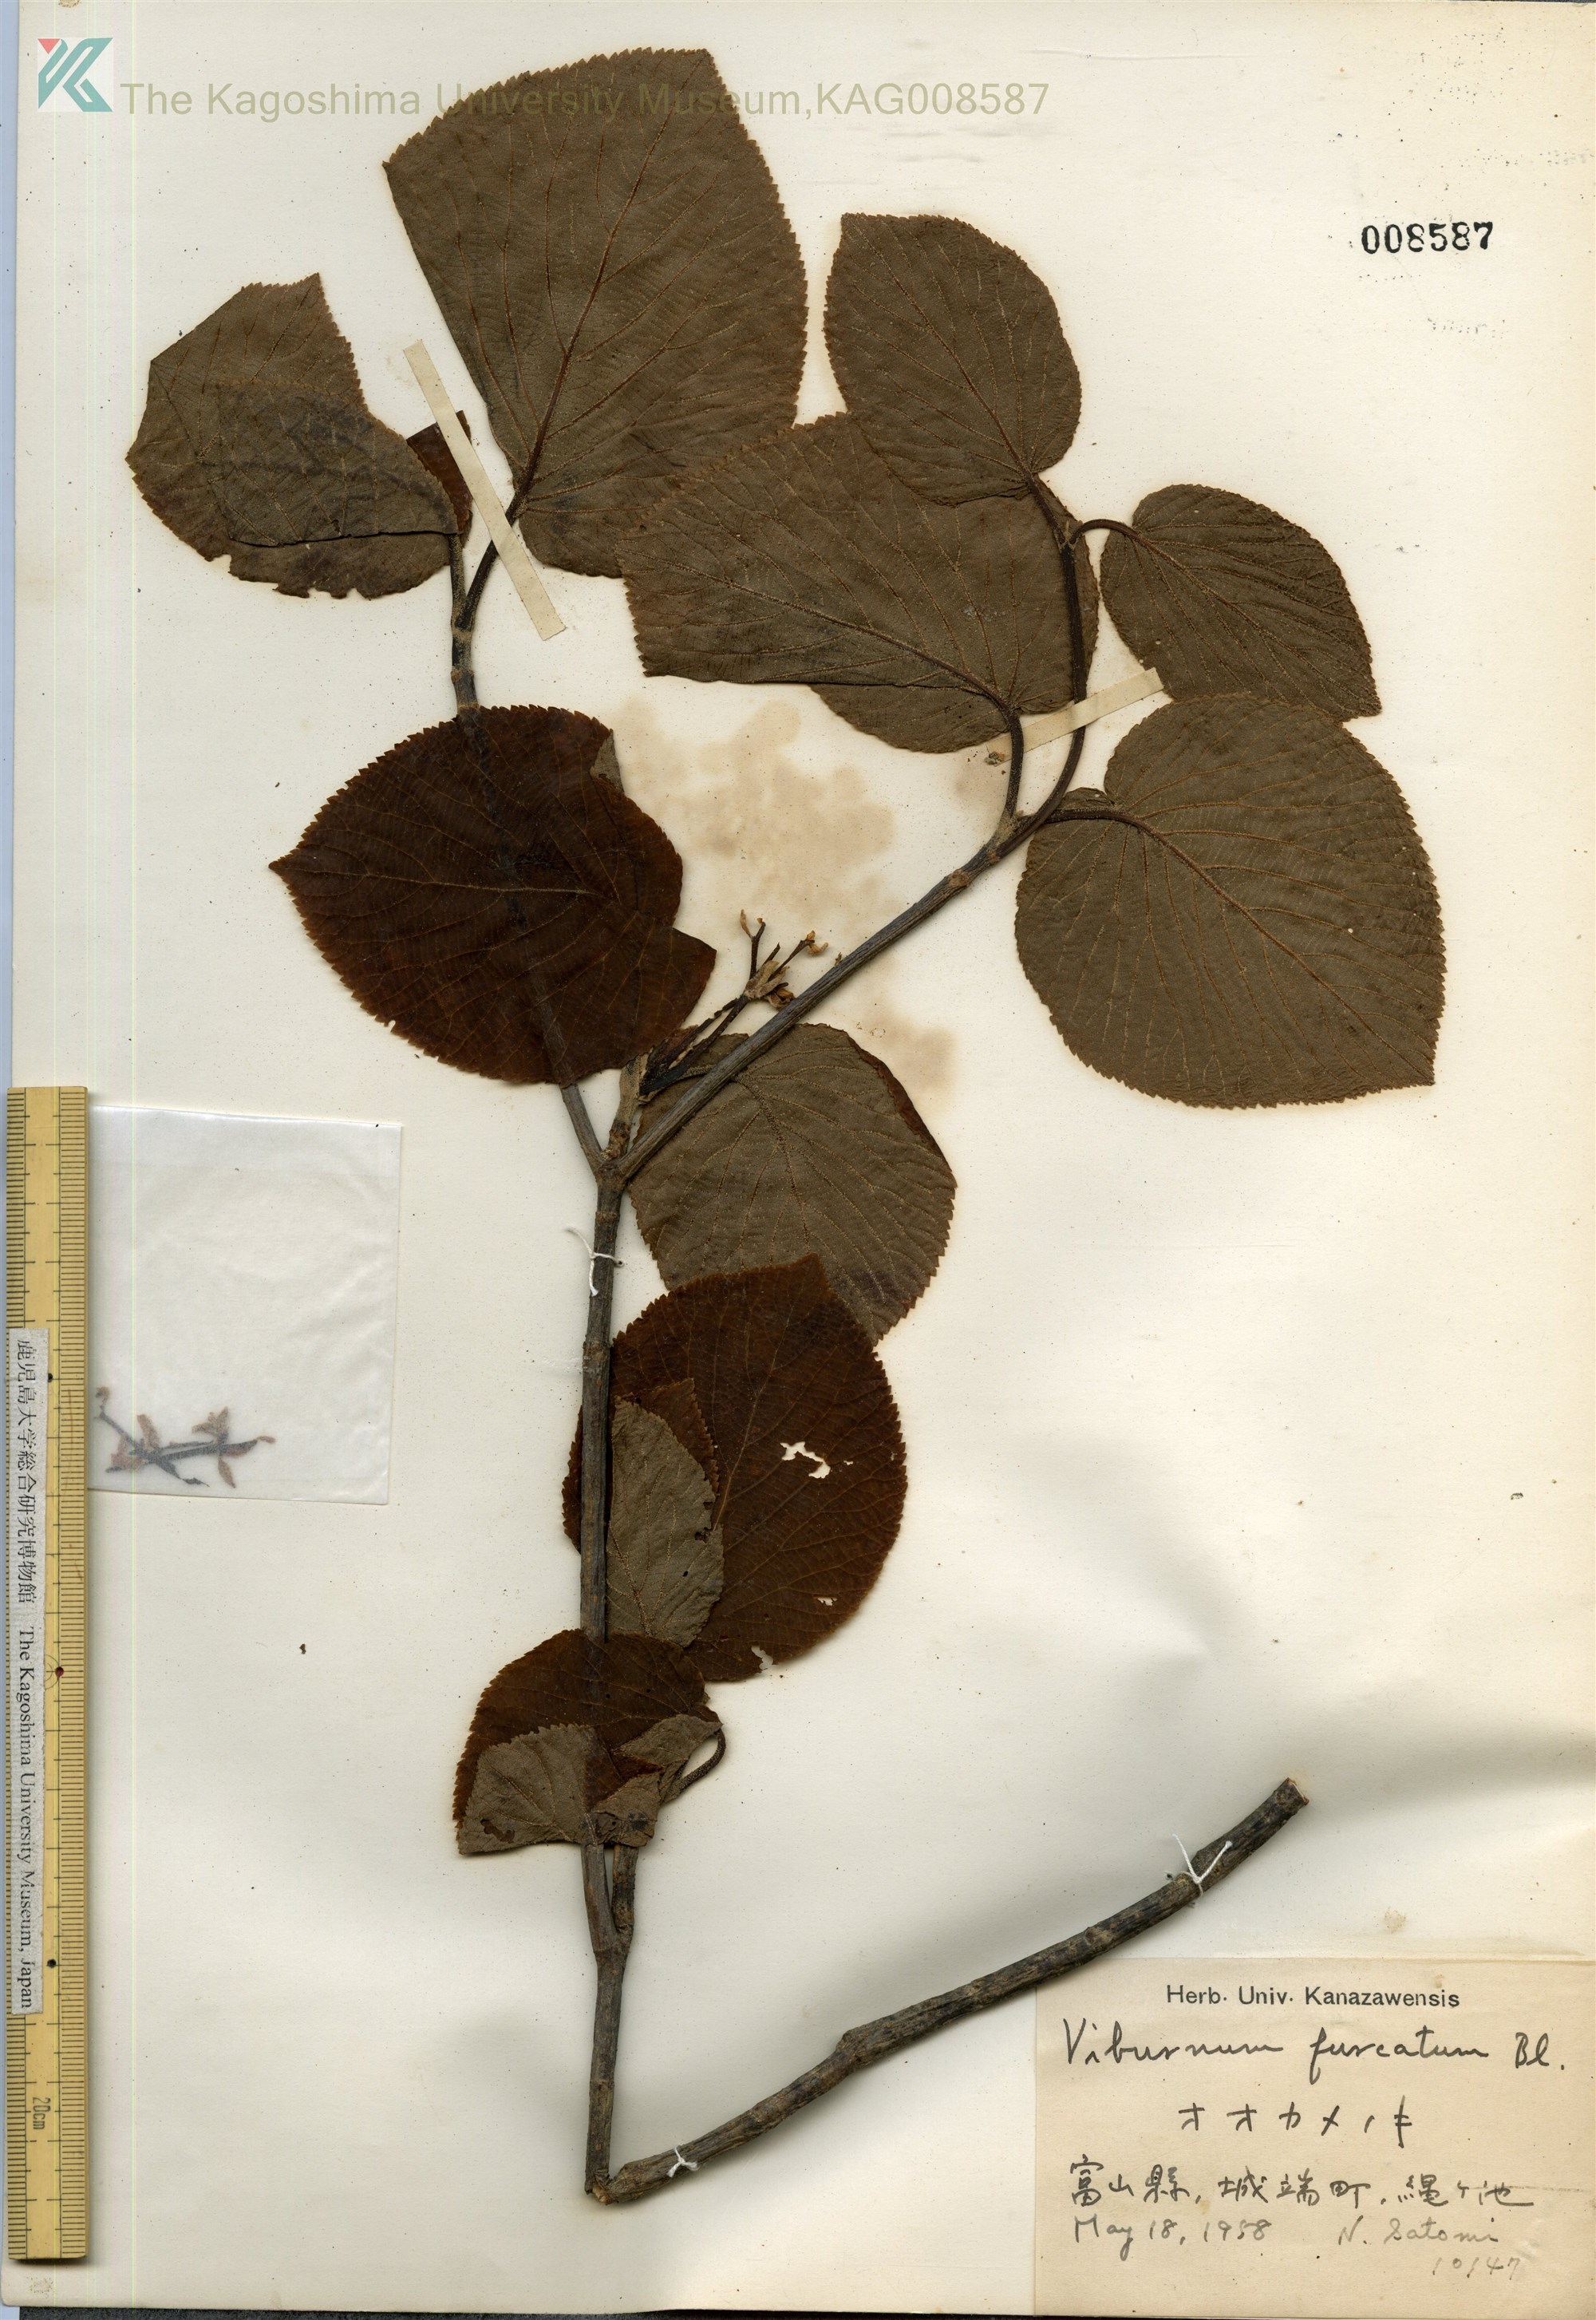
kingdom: Plantae
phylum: Tracheophyta
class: Magnoliopsida
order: Dipsacales
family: Viburnaceae
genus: Viburnum
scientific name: Viburnum furcatum
